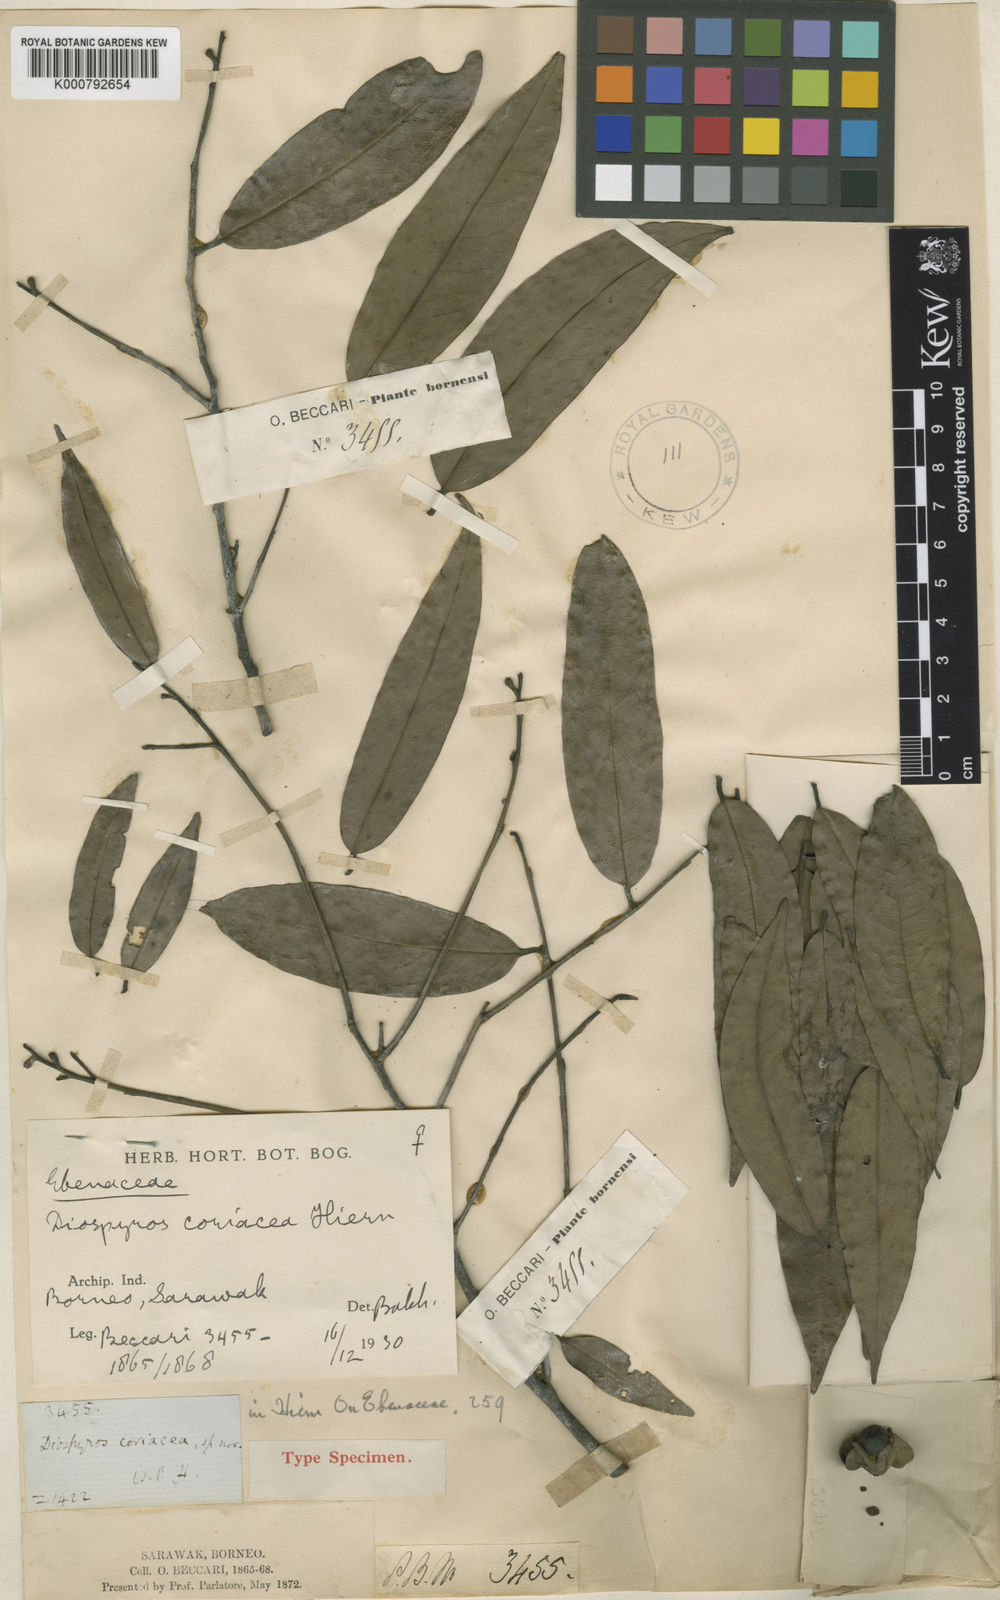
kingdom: Plantae
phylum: Tracheophyta
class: Magnoliopsida
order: Ericales
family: Ebenaceae
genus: Diospyros
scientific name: Diospyros coriacea
